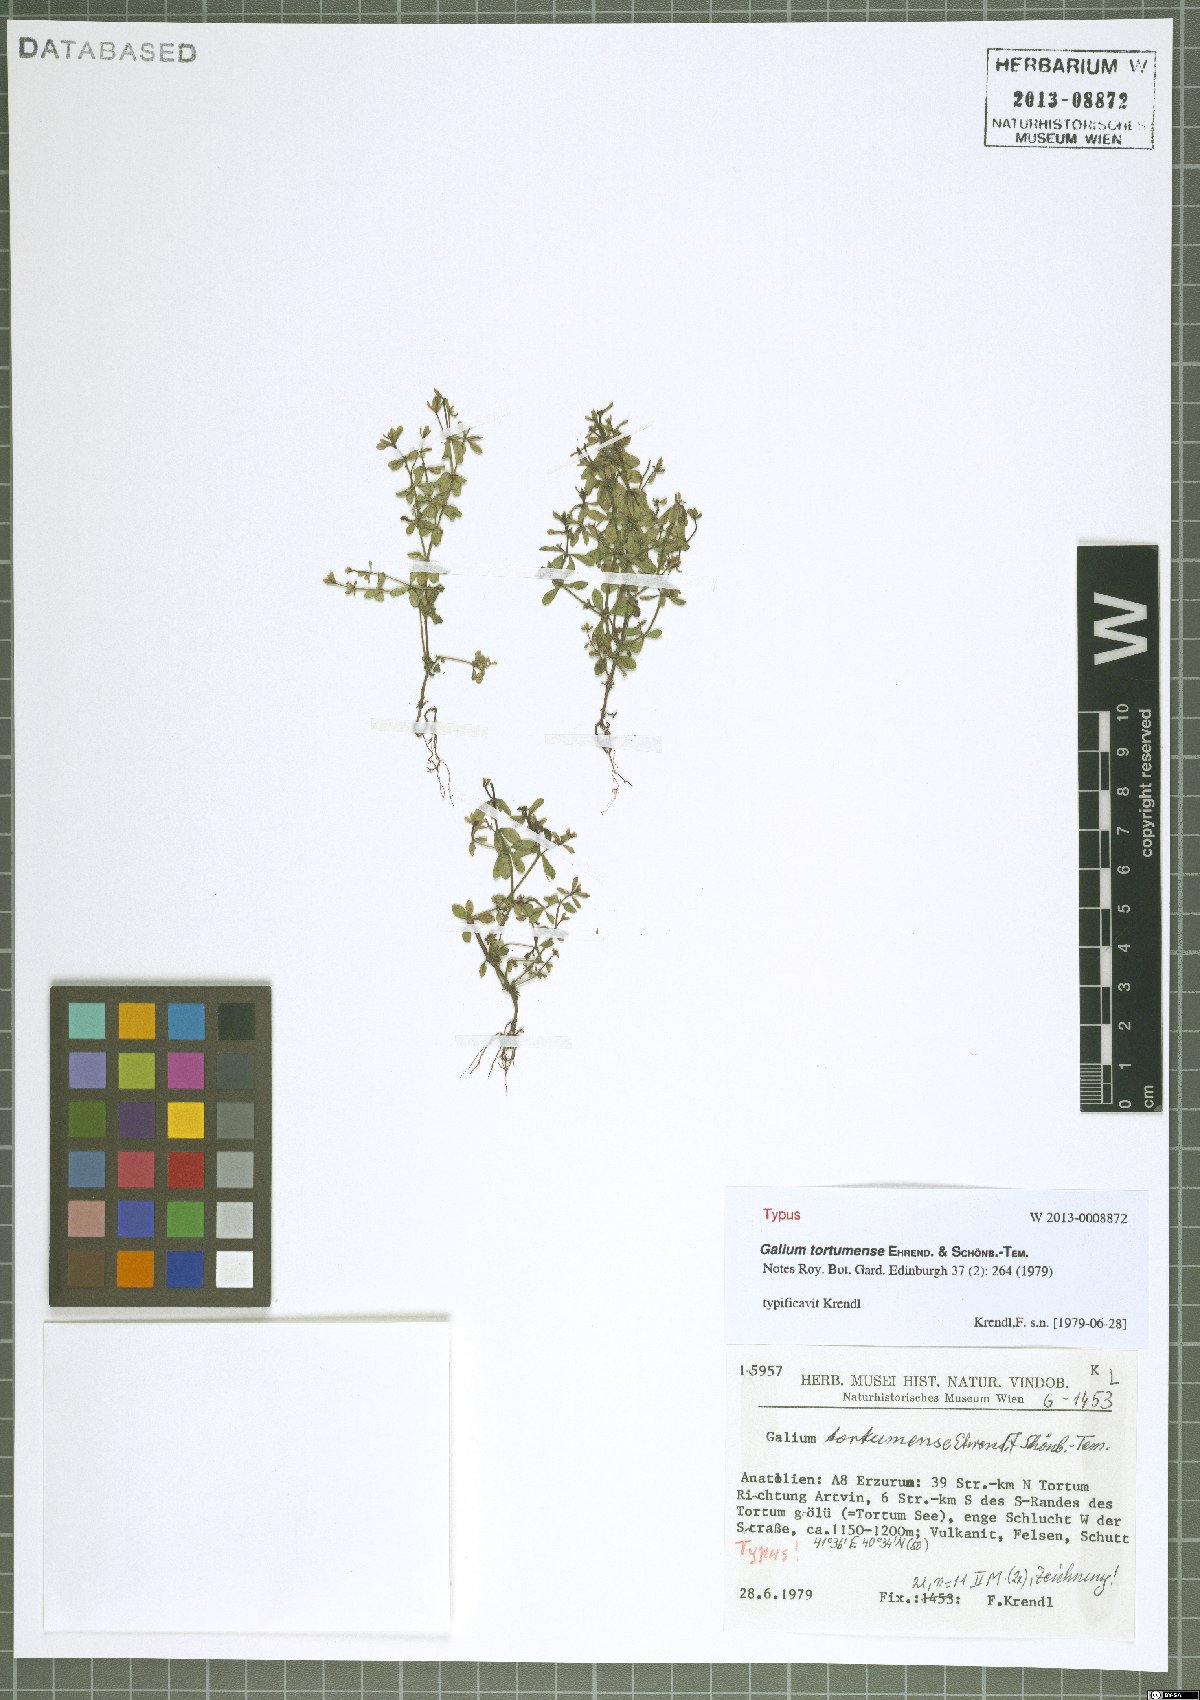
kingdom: Plantae
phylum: Tracheophyta
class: Magnoliopsida
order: Gentianales
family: Rubiaceae
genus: Galium
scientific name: Galium tortumense
